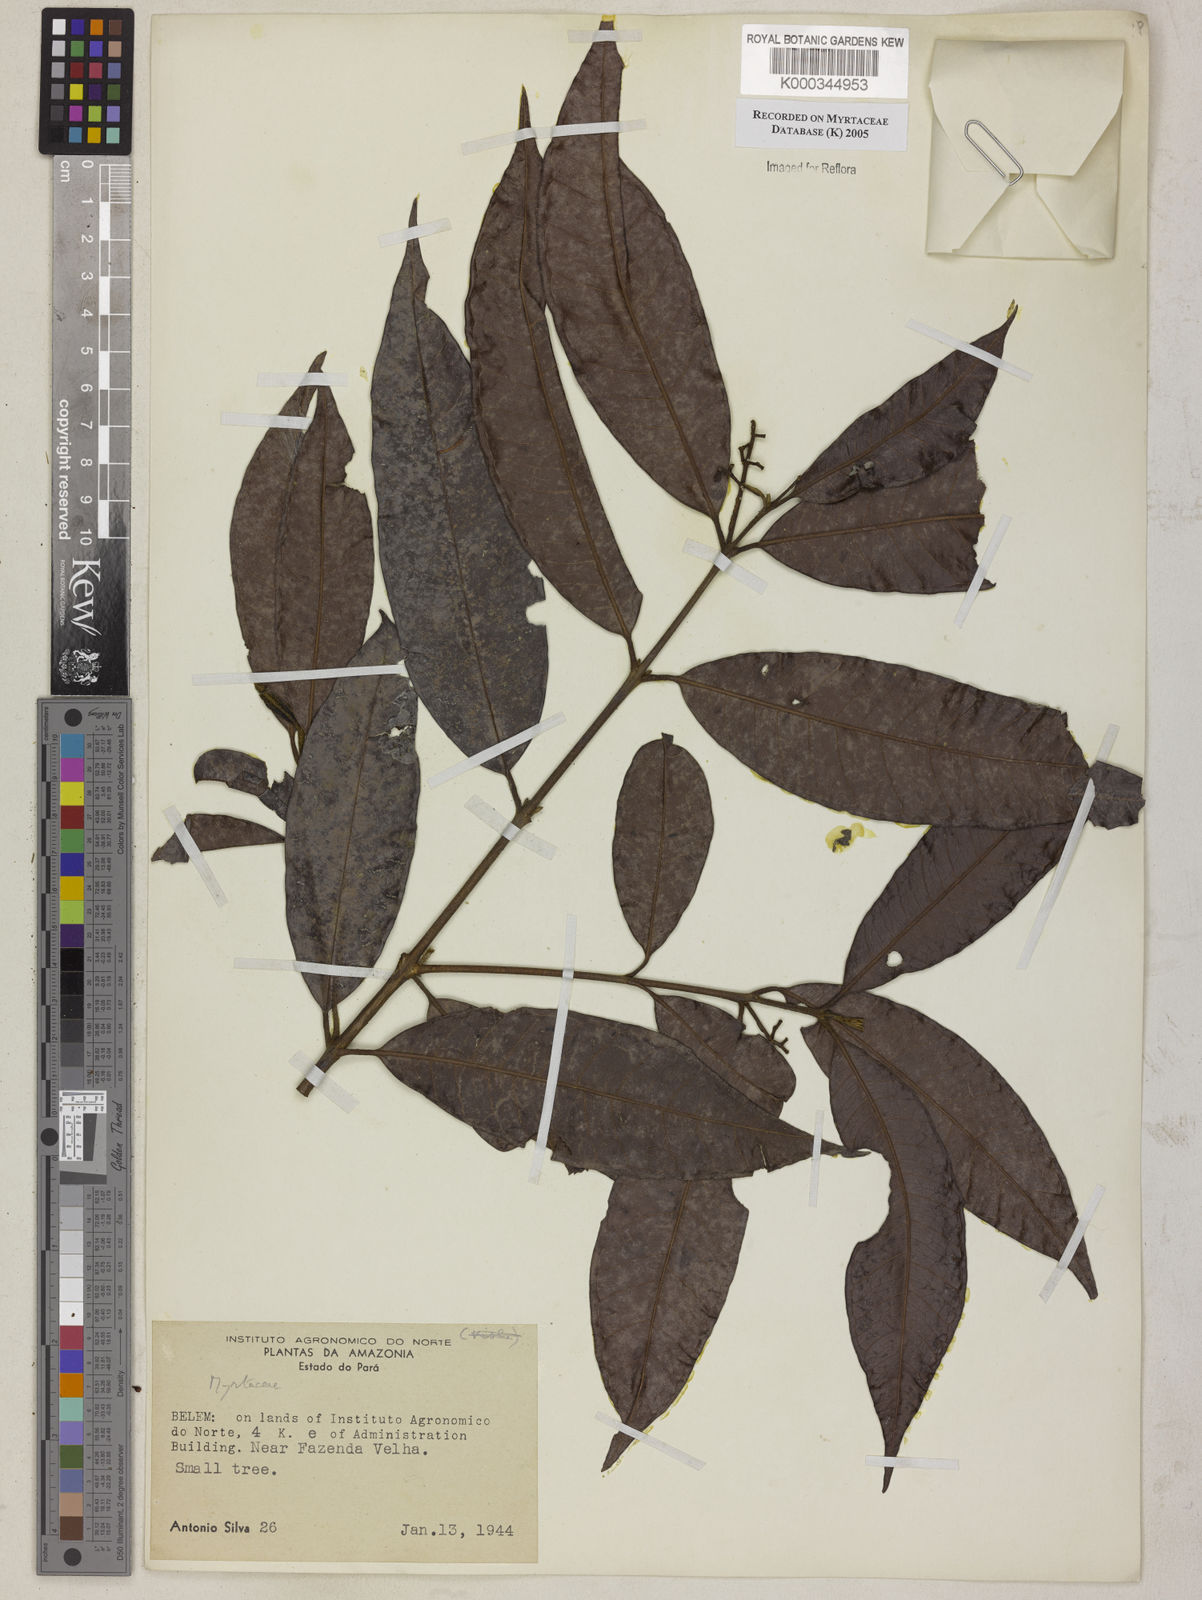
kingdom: Plantae
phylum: Tracheophyta
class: Magnoliopsida
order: Myrtales
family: Myrtaceae
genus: Myrcia
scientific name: Myrcia
